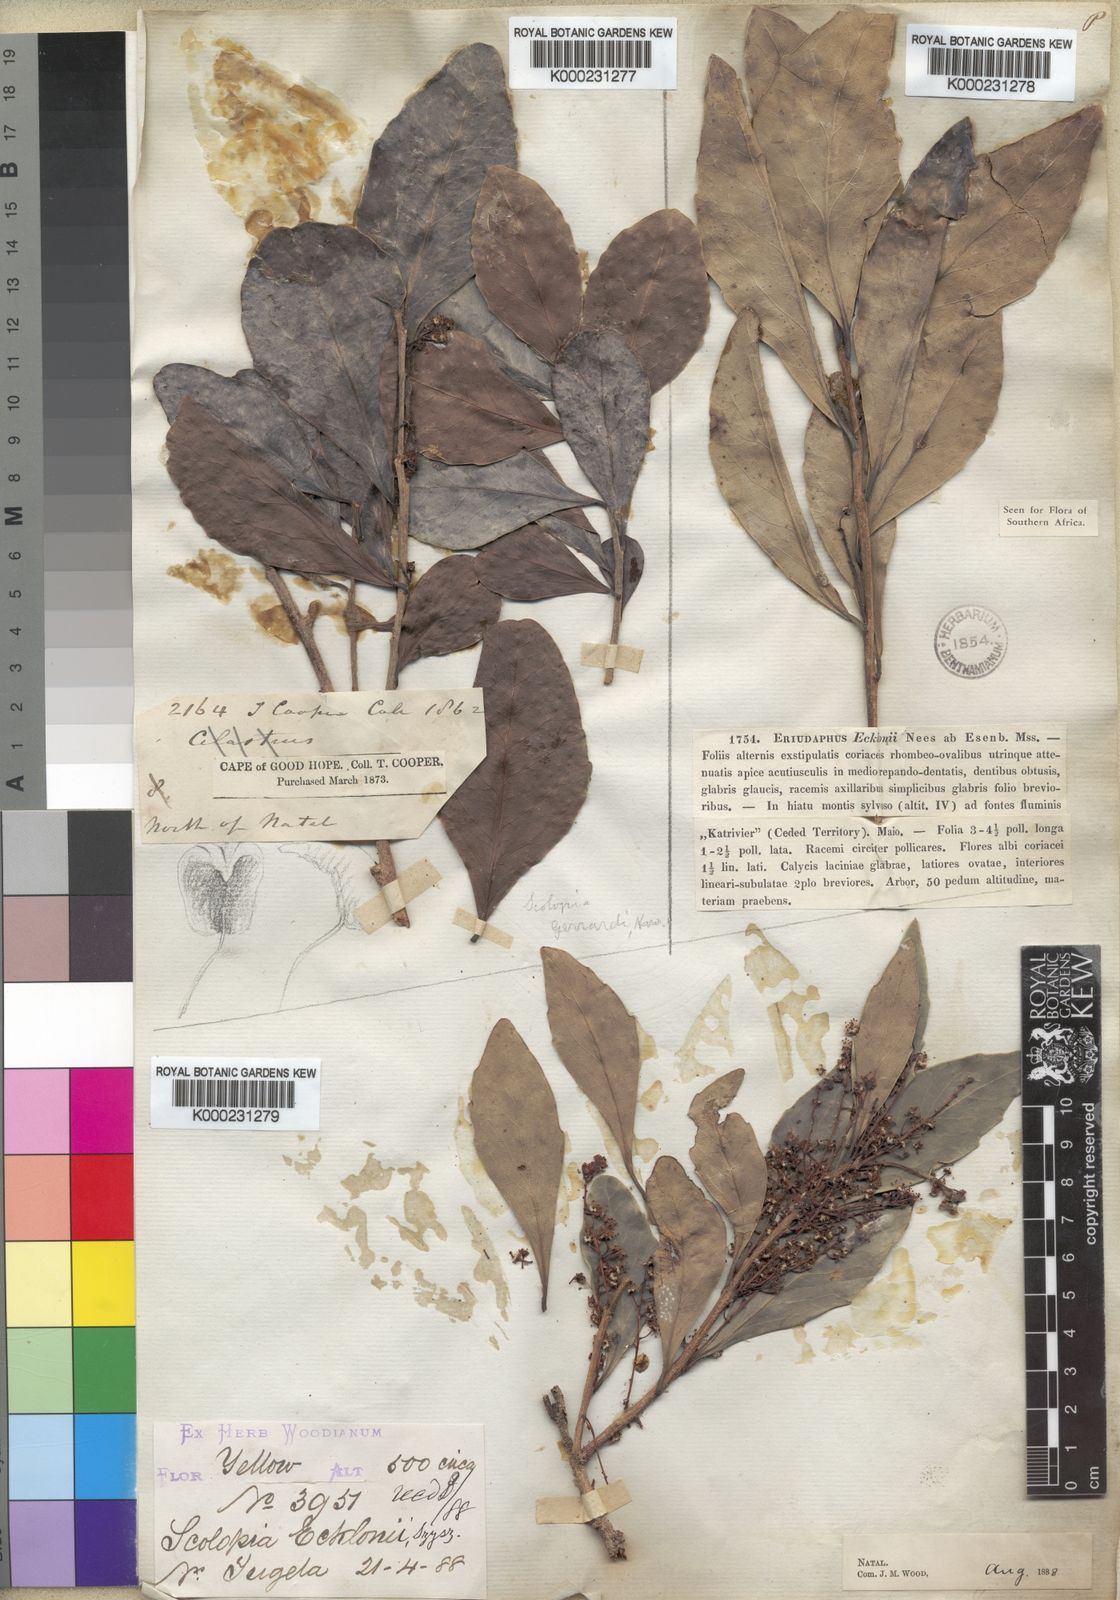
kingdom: Plantae
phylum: Tracheophyta
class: Magnoliopsida
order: Malpighiales
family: Salicaceae
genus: Scolopia
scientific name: Scolopia
